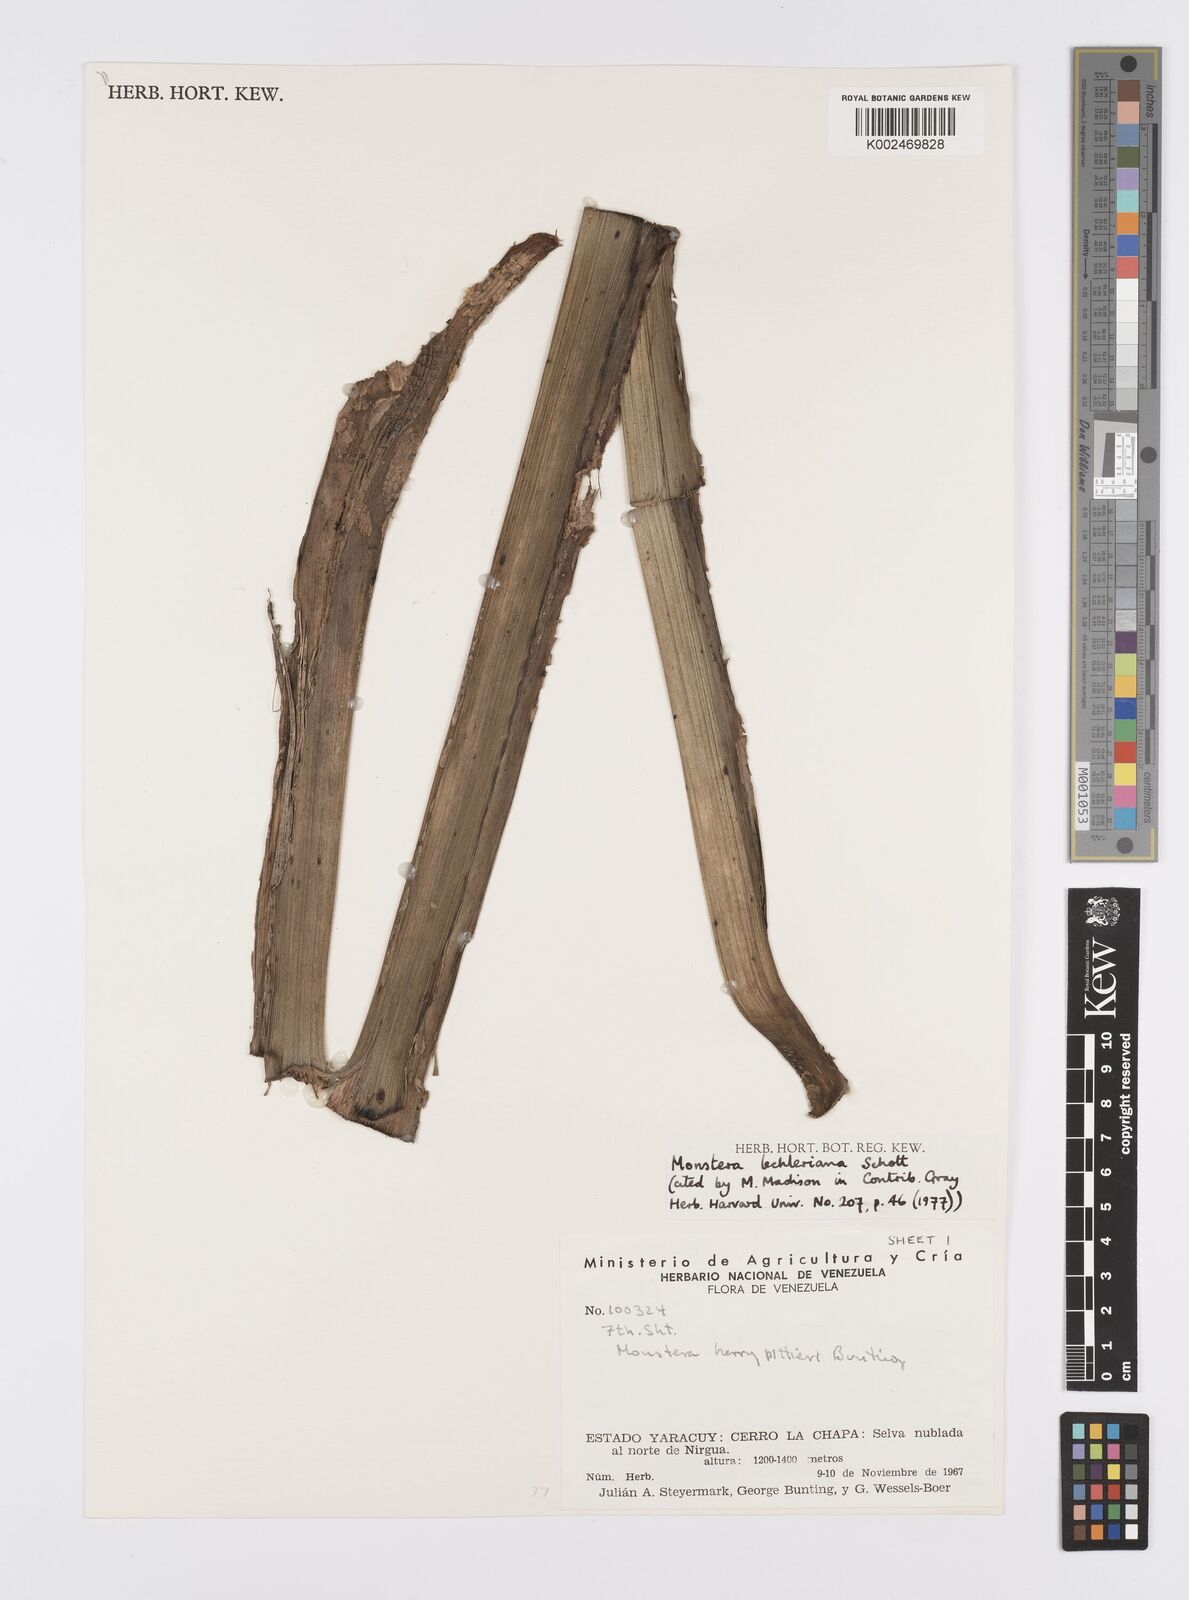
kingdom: Plantae
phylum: Tracheophyta
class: Liliopsida
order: Alismatales
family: Araceae
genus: Monstera
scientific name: Monstera lechleriana
